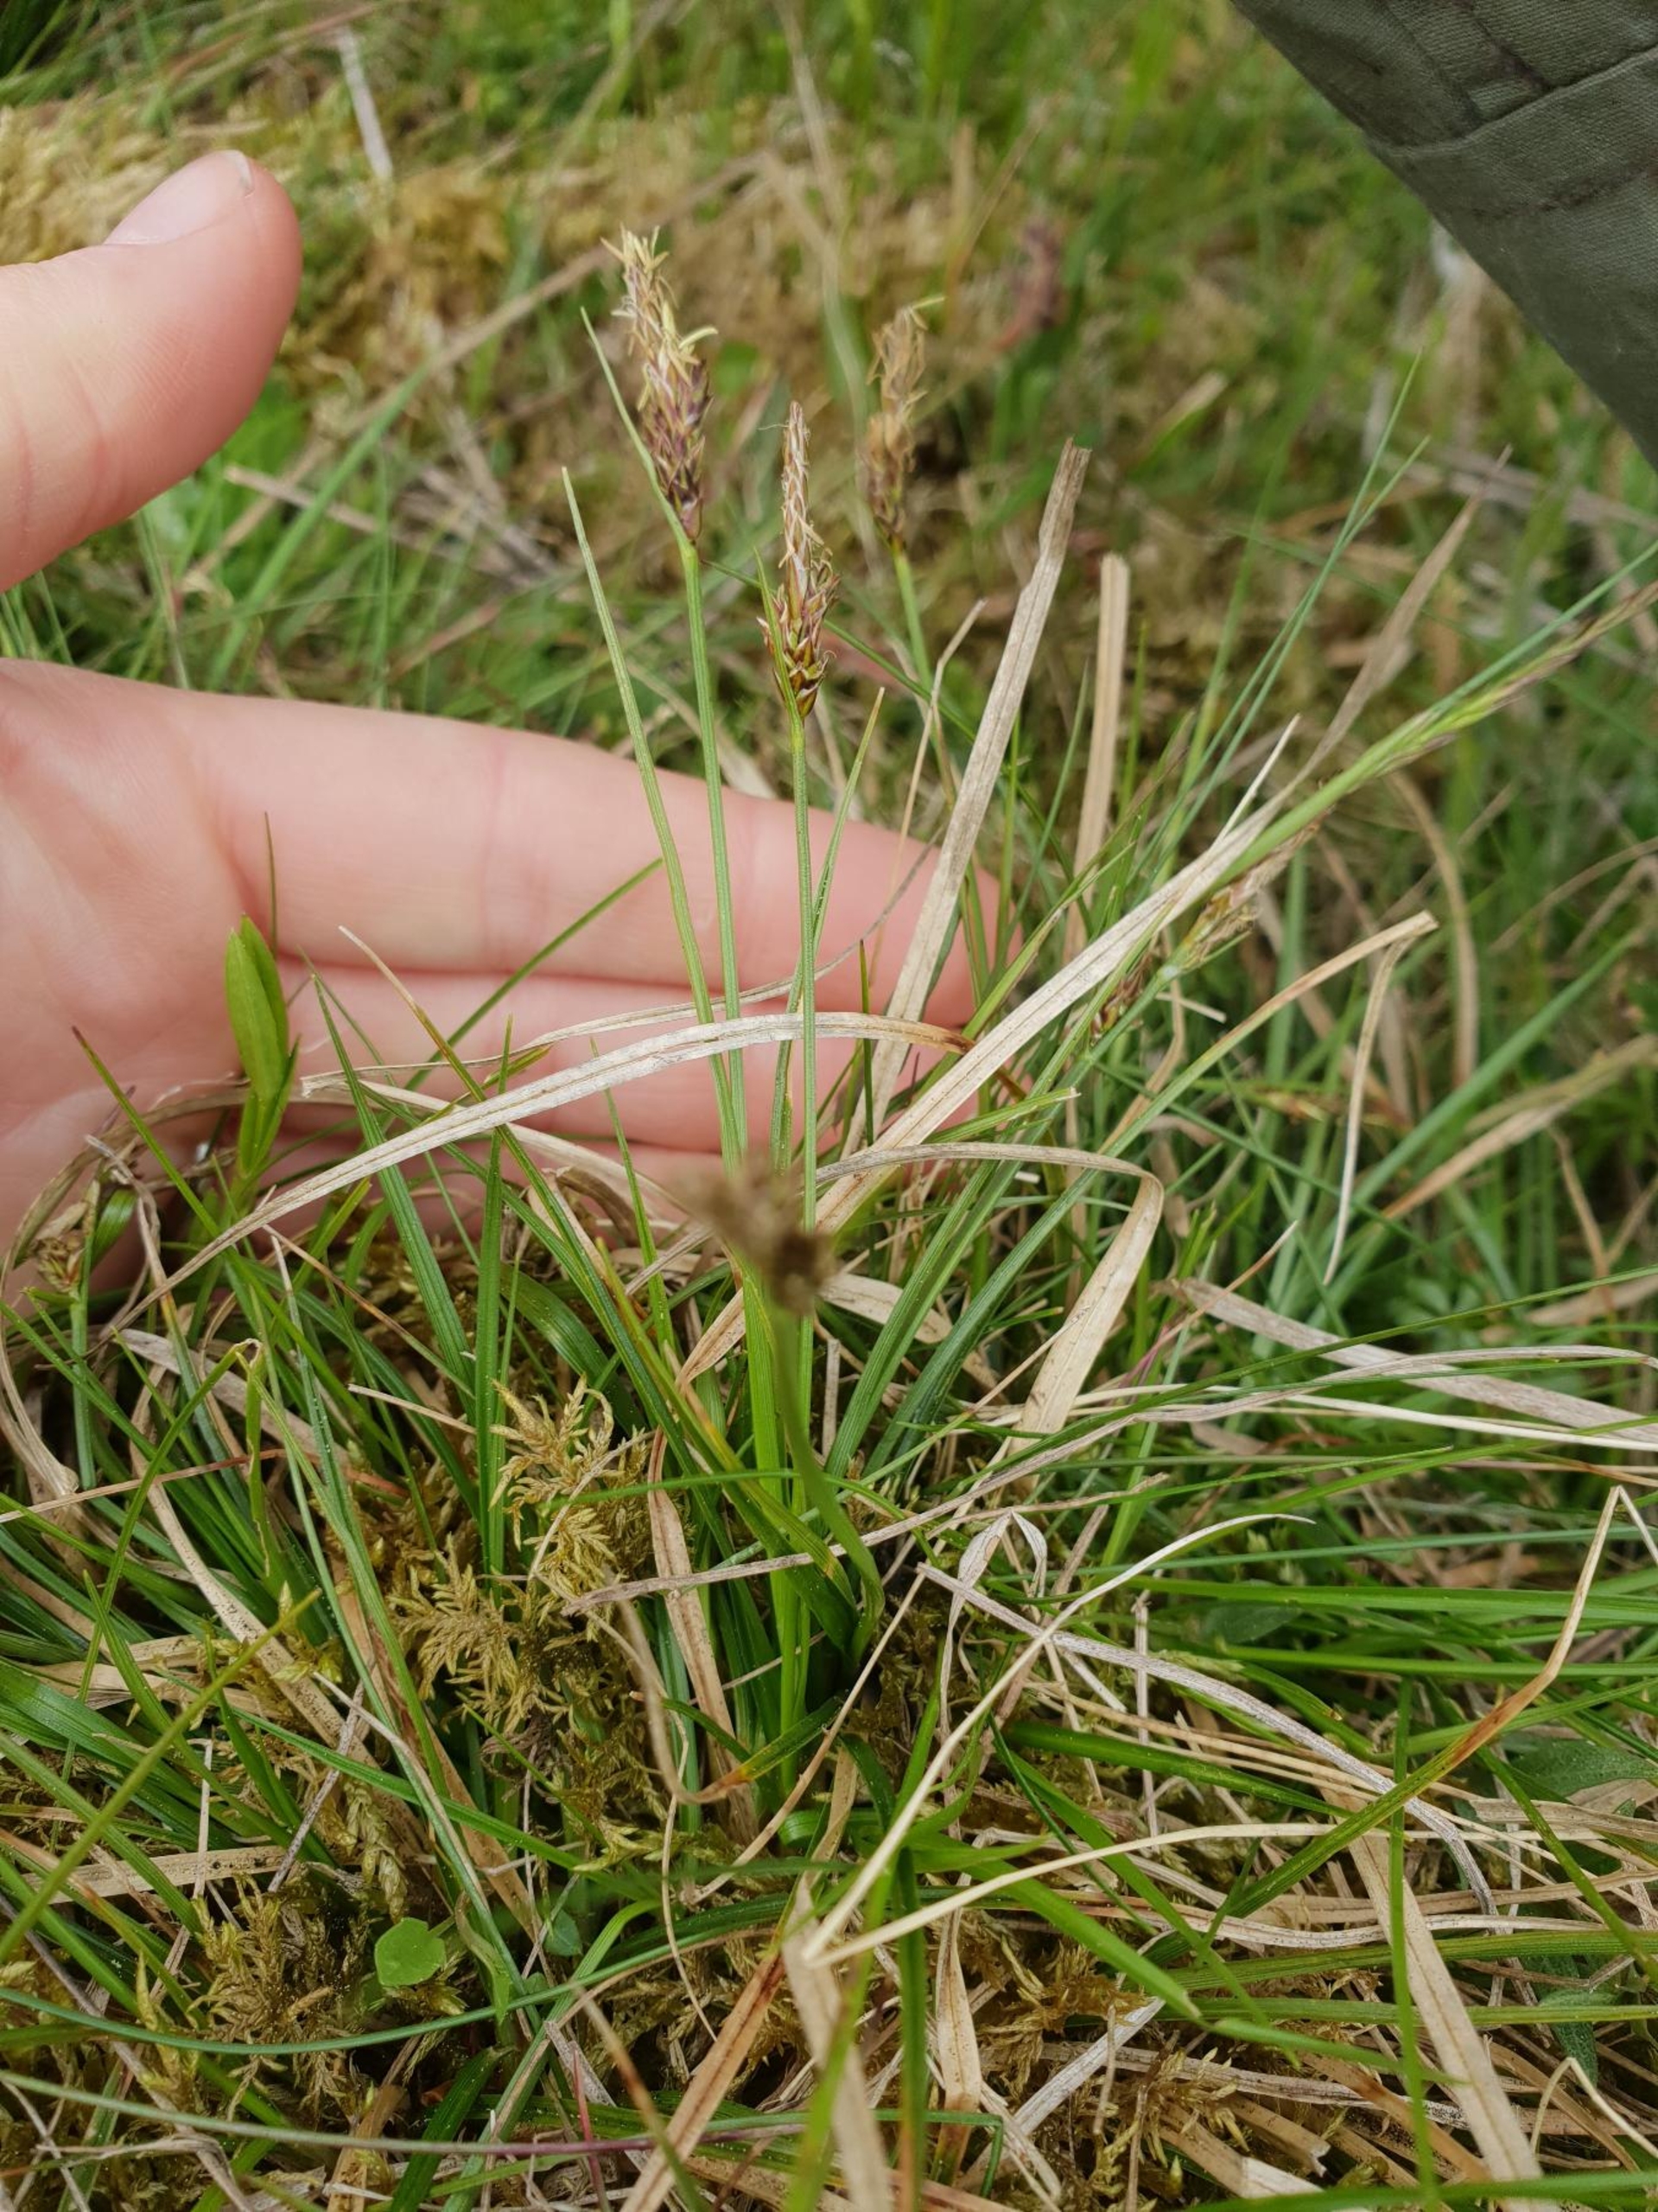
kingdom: Plantae
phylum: Tracheophyta
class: Liliopsida
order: Poales
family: Cyperaceae
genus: Carex
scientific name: Carex pilulifera
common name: Pille-star
